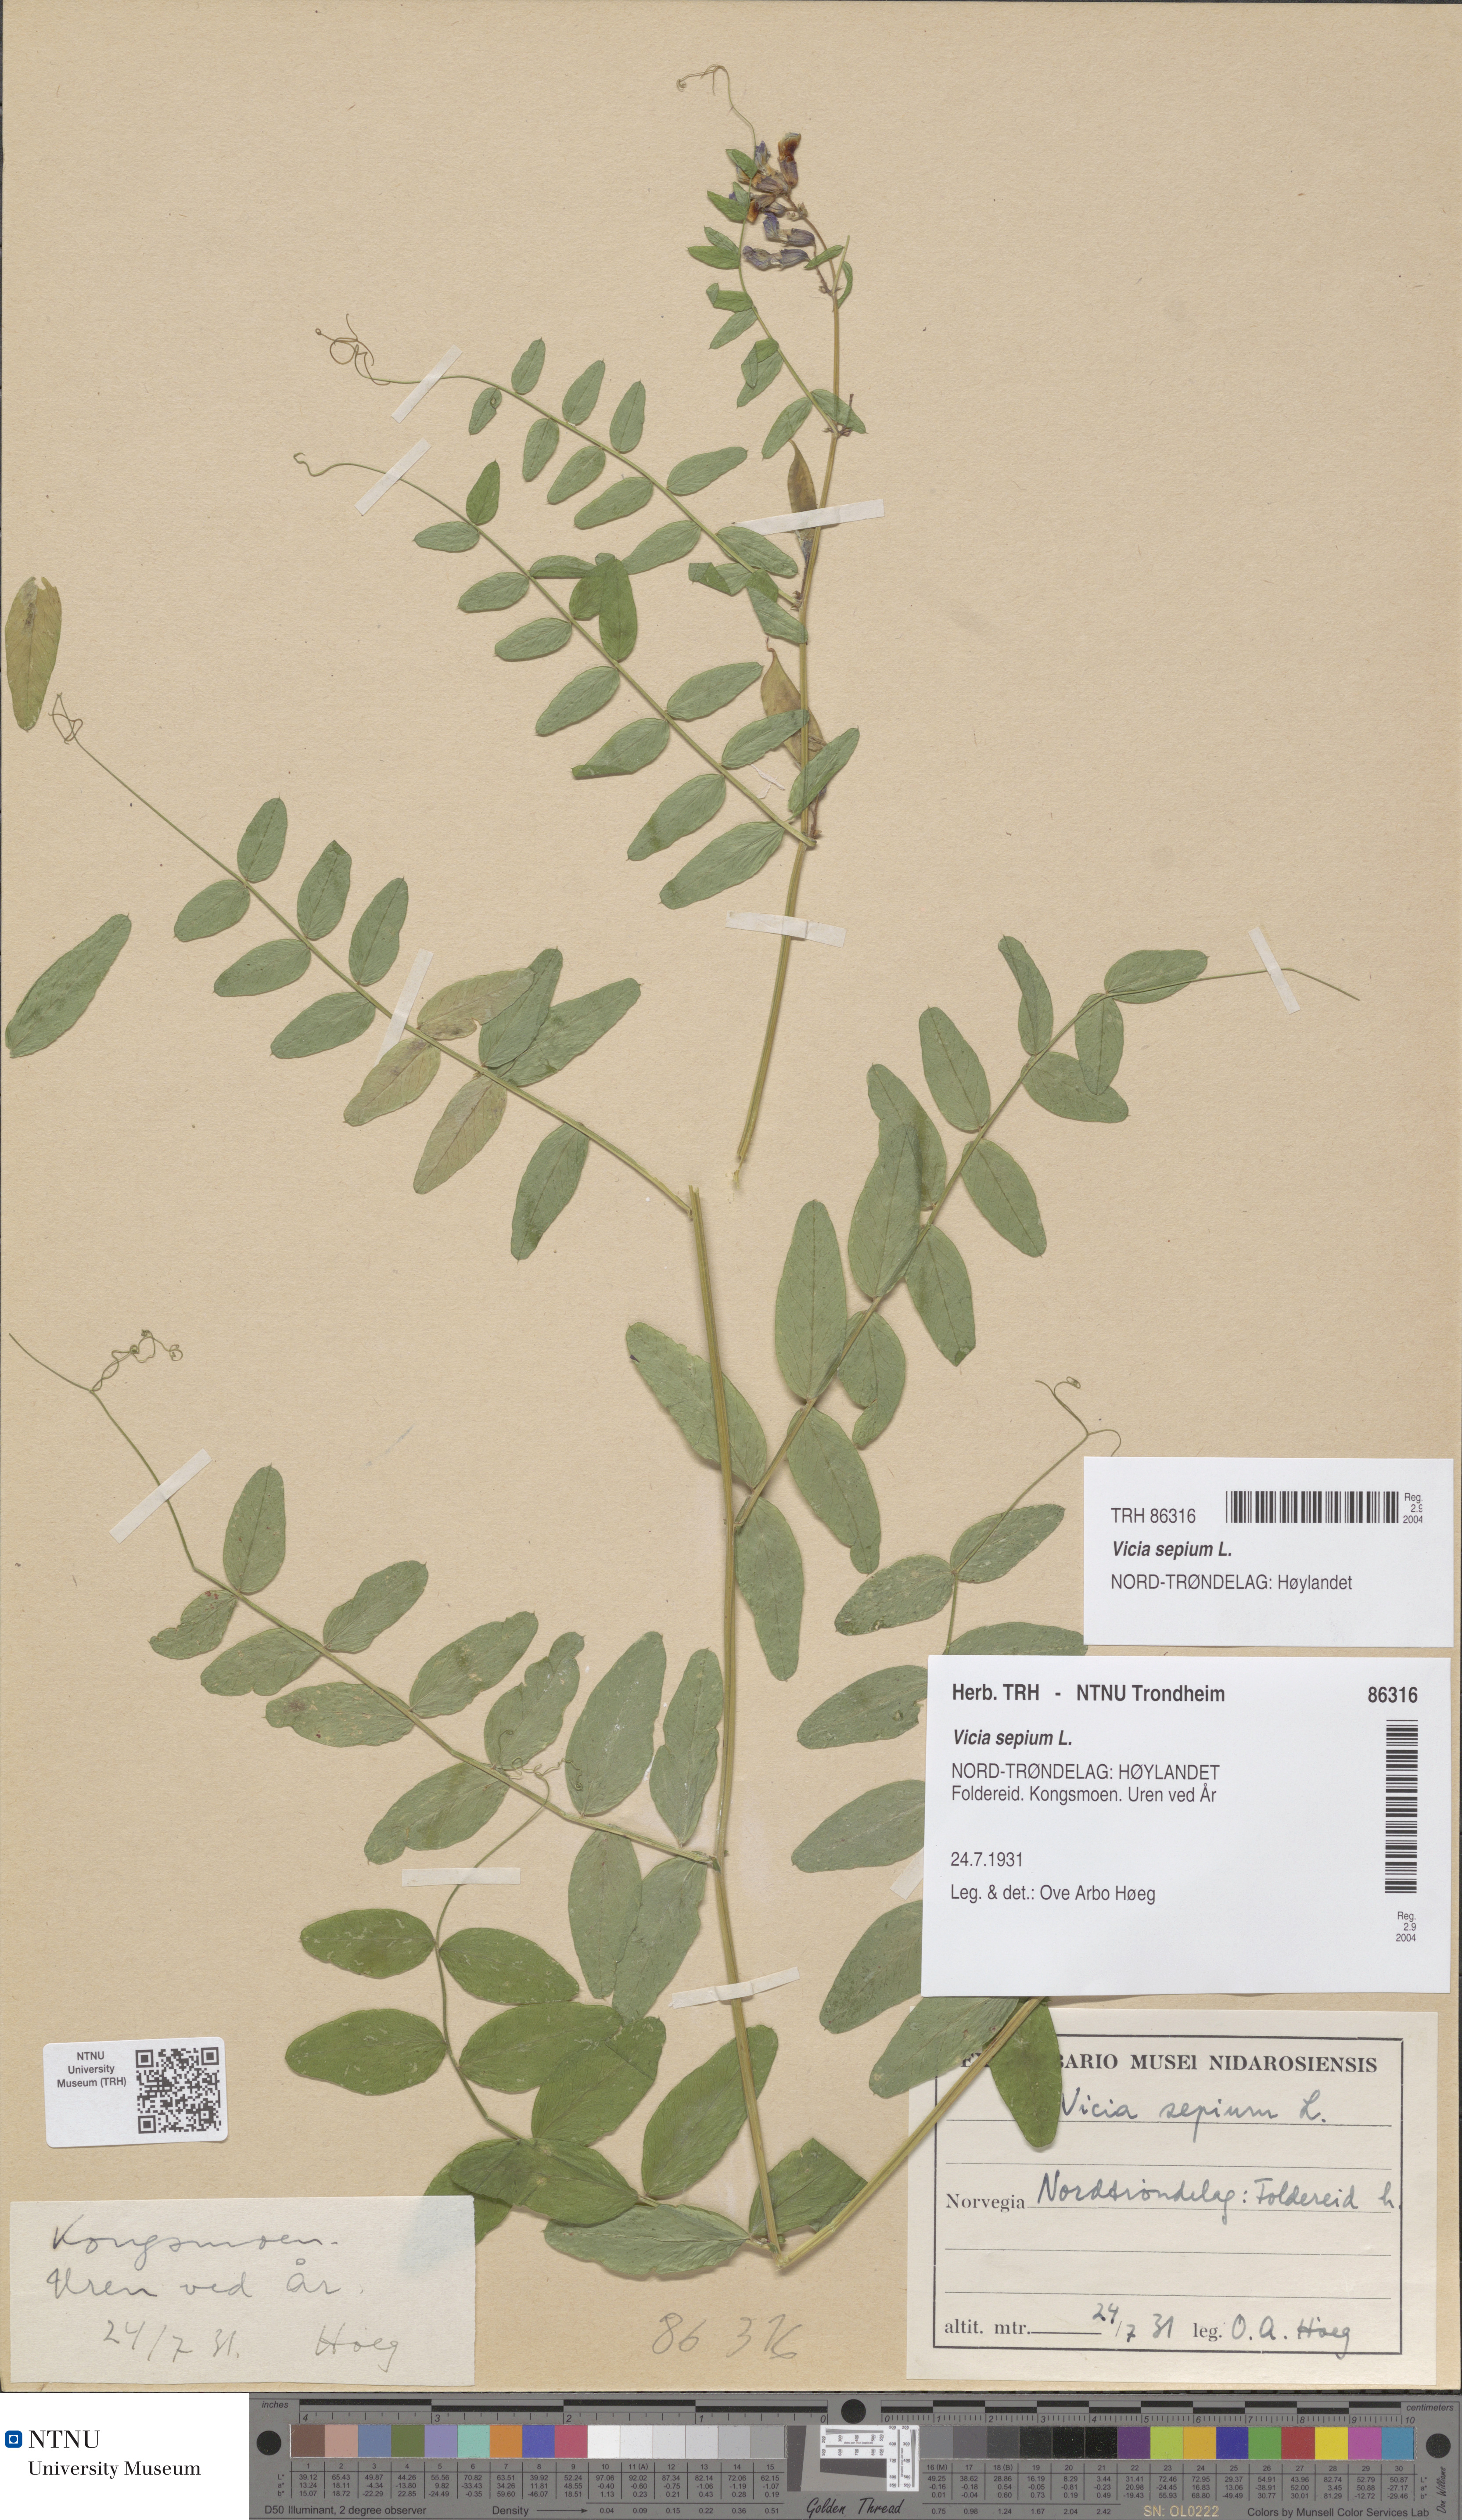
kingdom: Plantae
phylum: Tracheophyta
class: Magnoliopsida
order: Fabales
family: Fabaceae
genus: Vicia
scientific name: Vicia sepium
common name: Bush vetch
